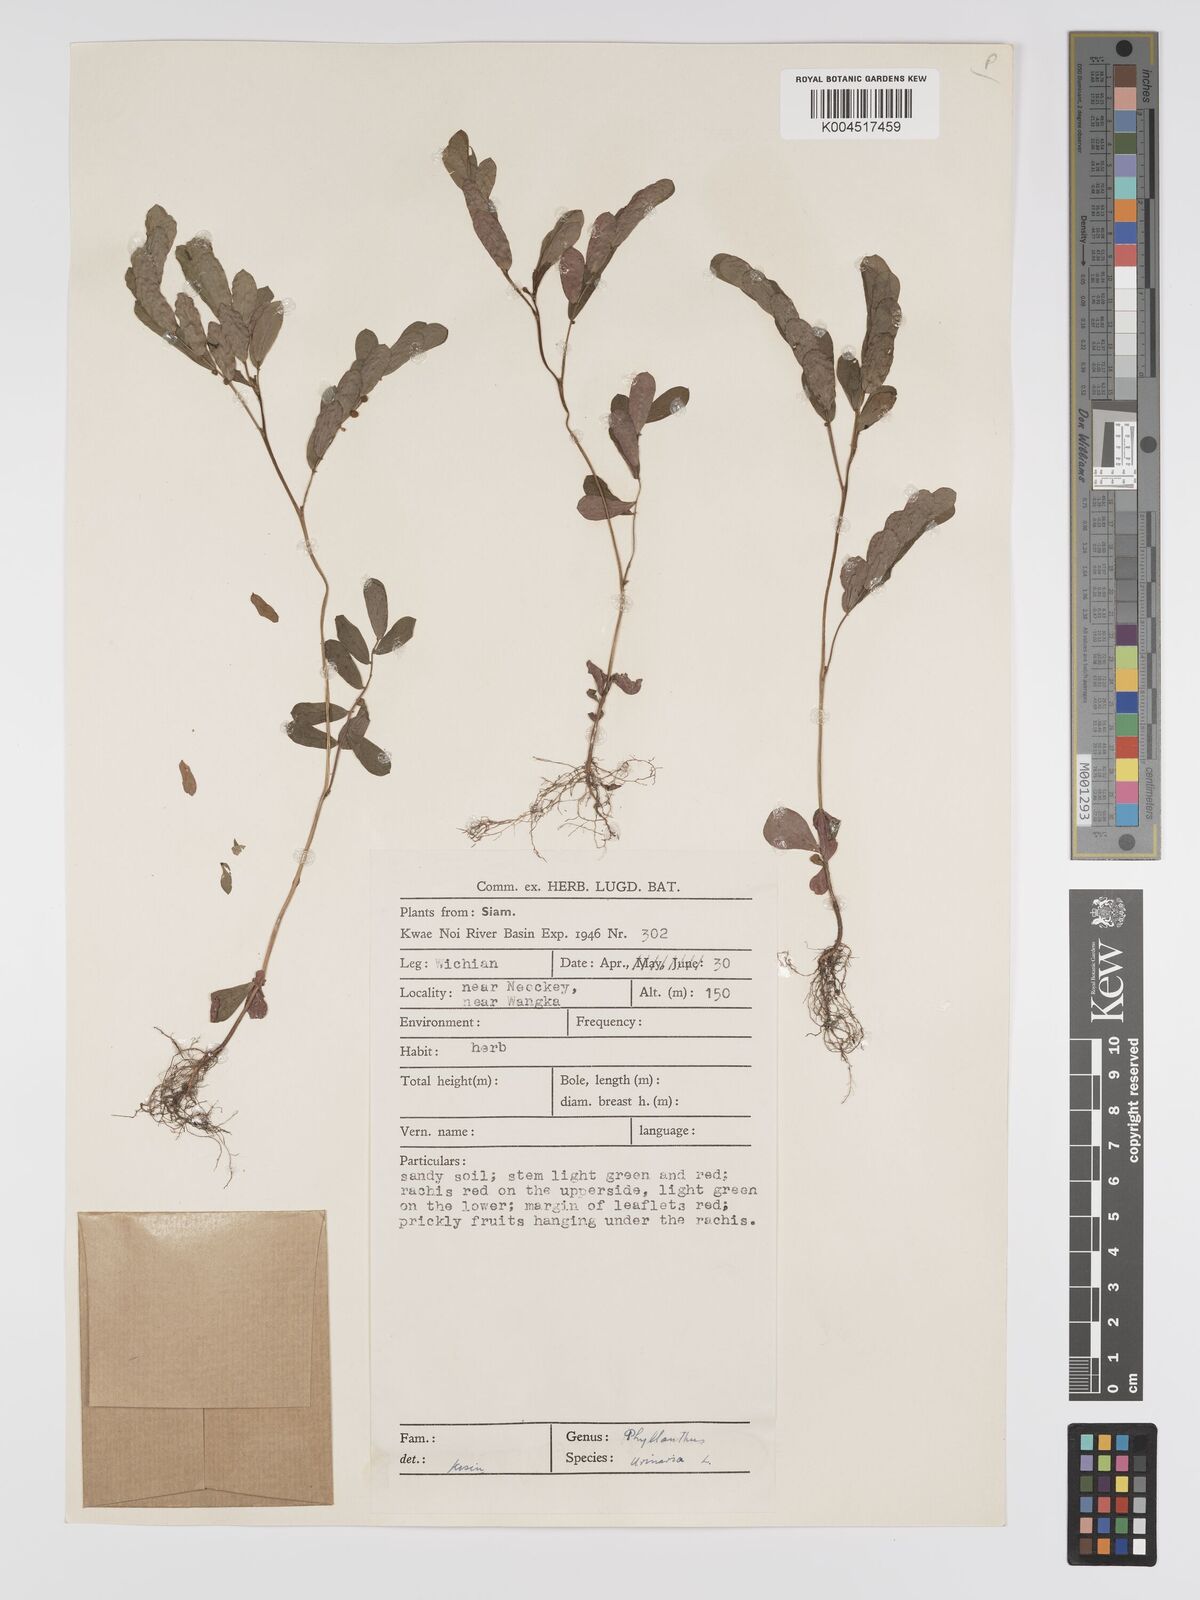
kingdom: Plantae
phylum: Tracheophyta
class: Magnoliopsida
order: Malpighiales
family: Phyllanthaceae
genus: Phyllanthus
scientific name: Phyllanthus urinaria
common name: Chamber bitter
